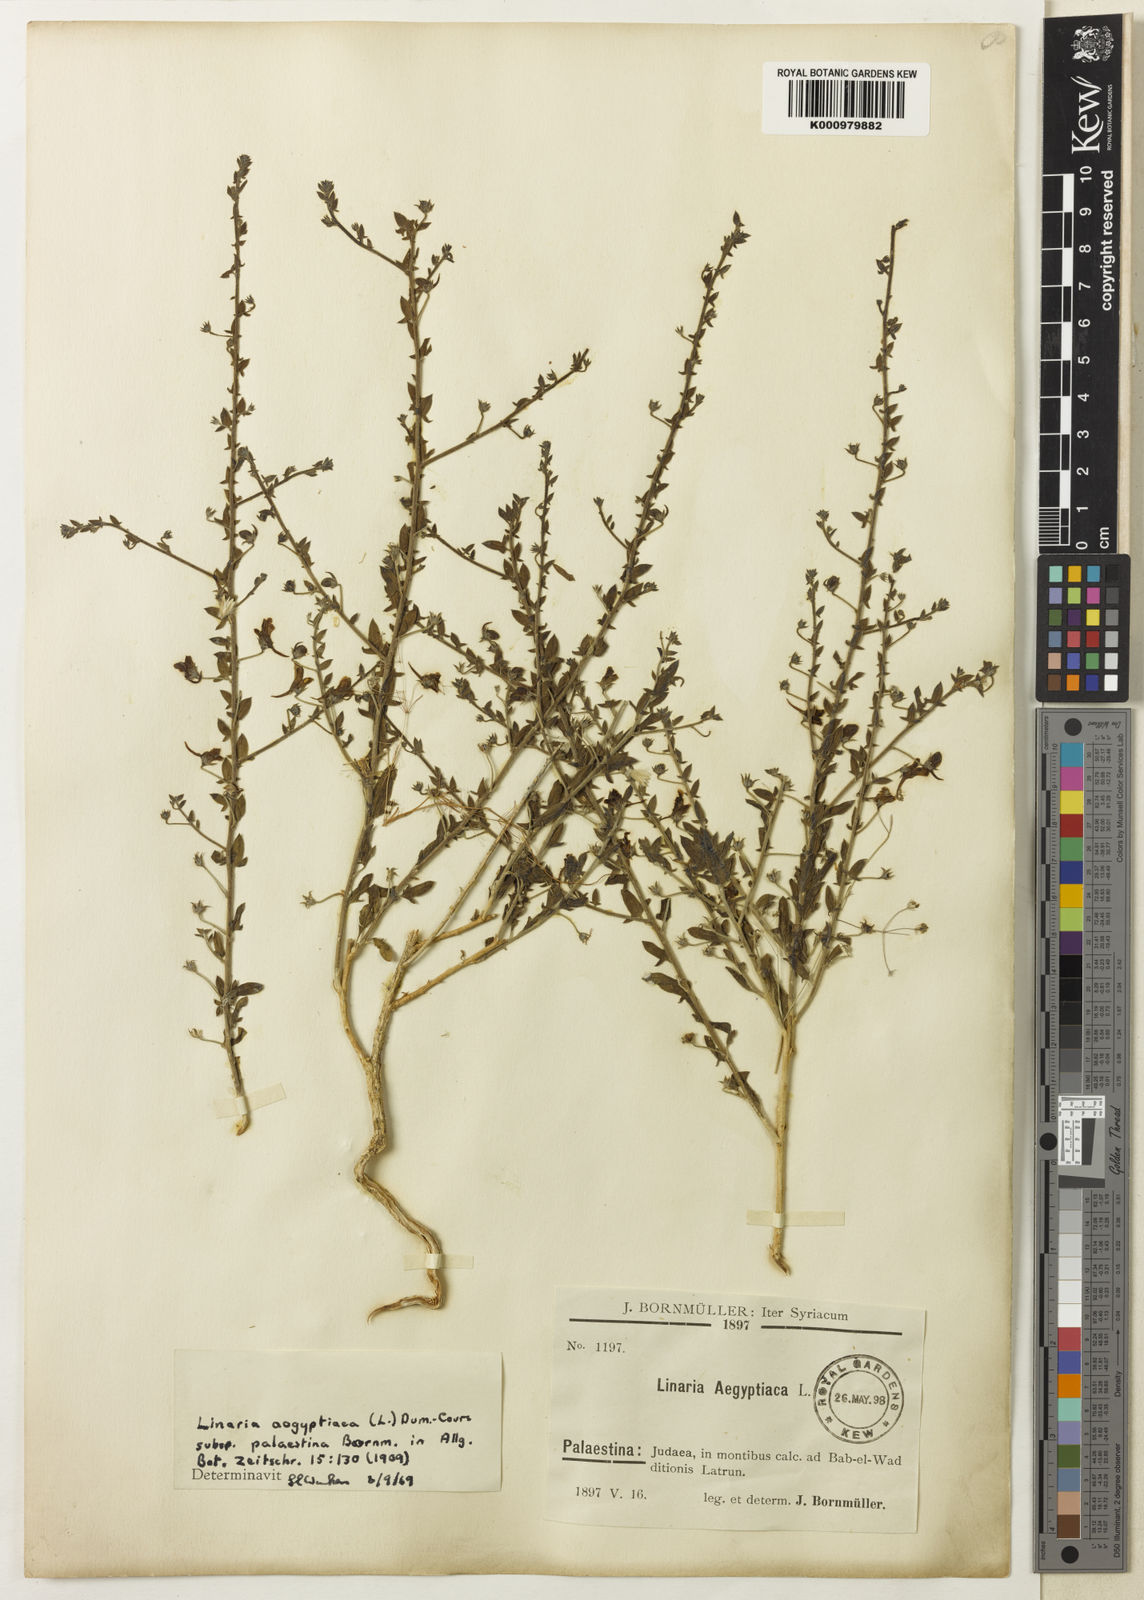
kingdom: Plantae
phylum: Tracheophyta
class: Magnoliopsida
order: Lamiales
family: Plantaginaceae
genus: Kickxia
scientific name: Kickxia
